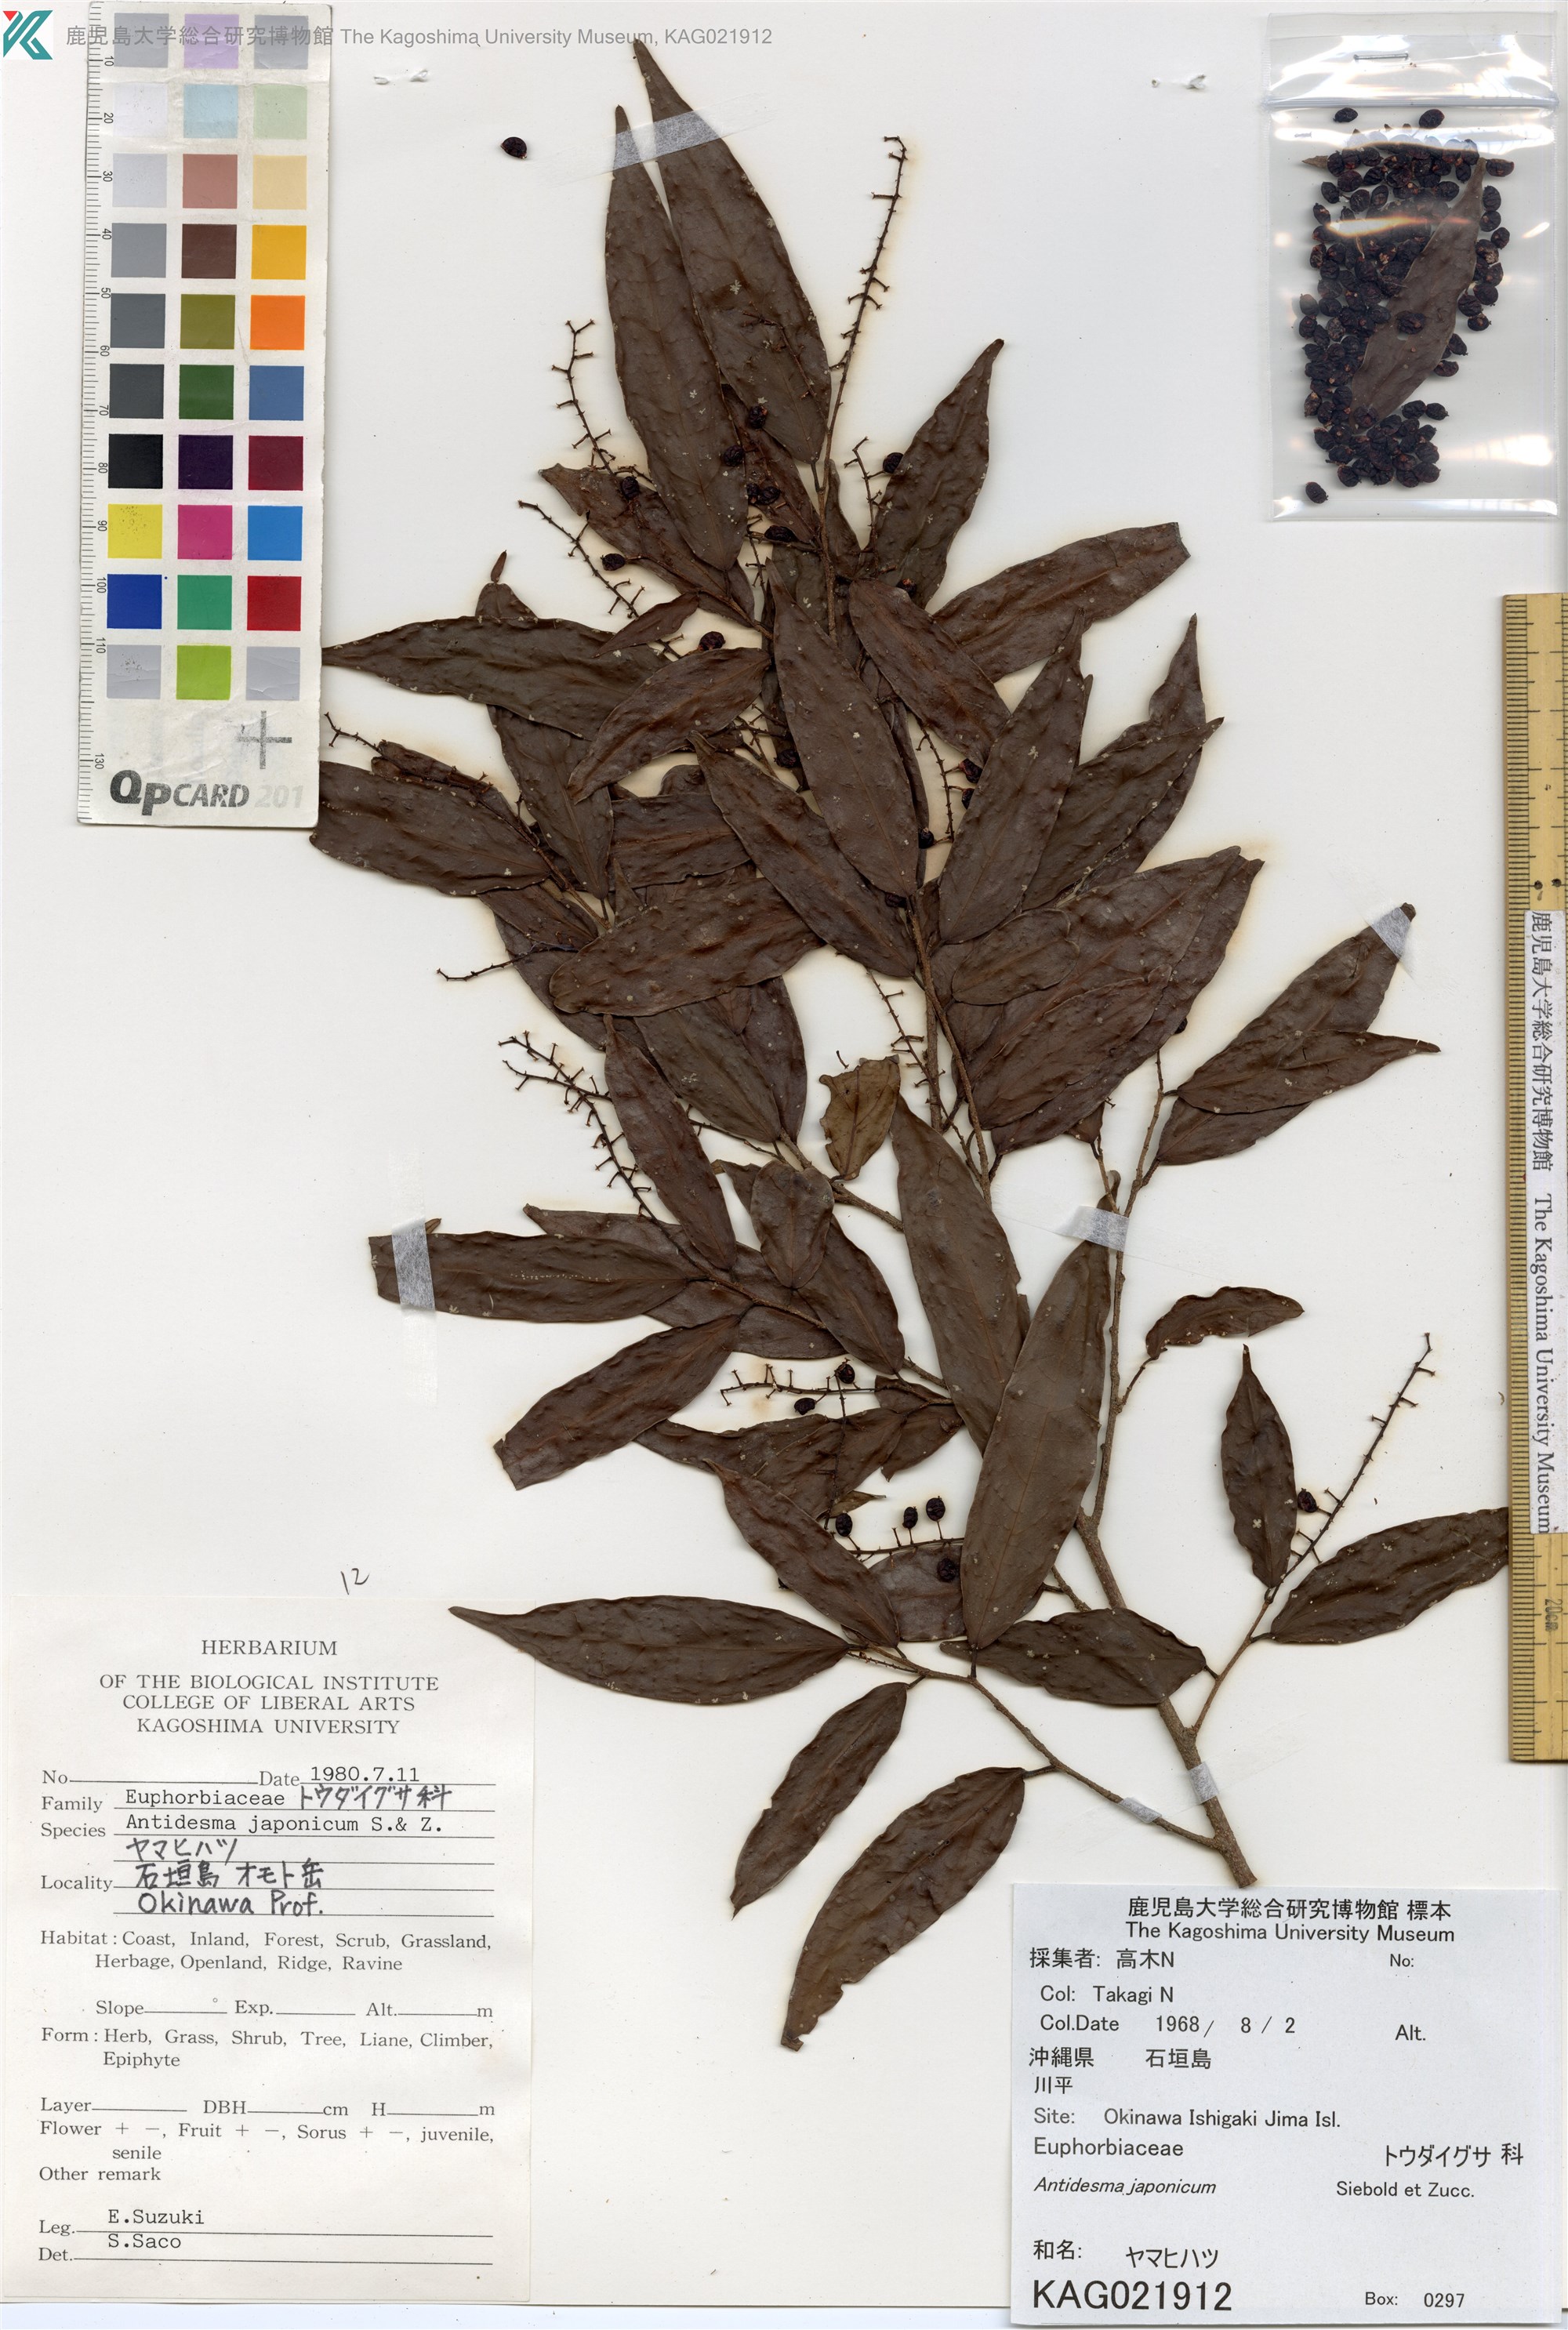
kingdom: Plantae
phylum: Tracheophyta
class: Magnoliopsida
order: Malpighiales
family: Phyllanthaceae
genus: Antidesma
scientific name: Antidesma japonicum
